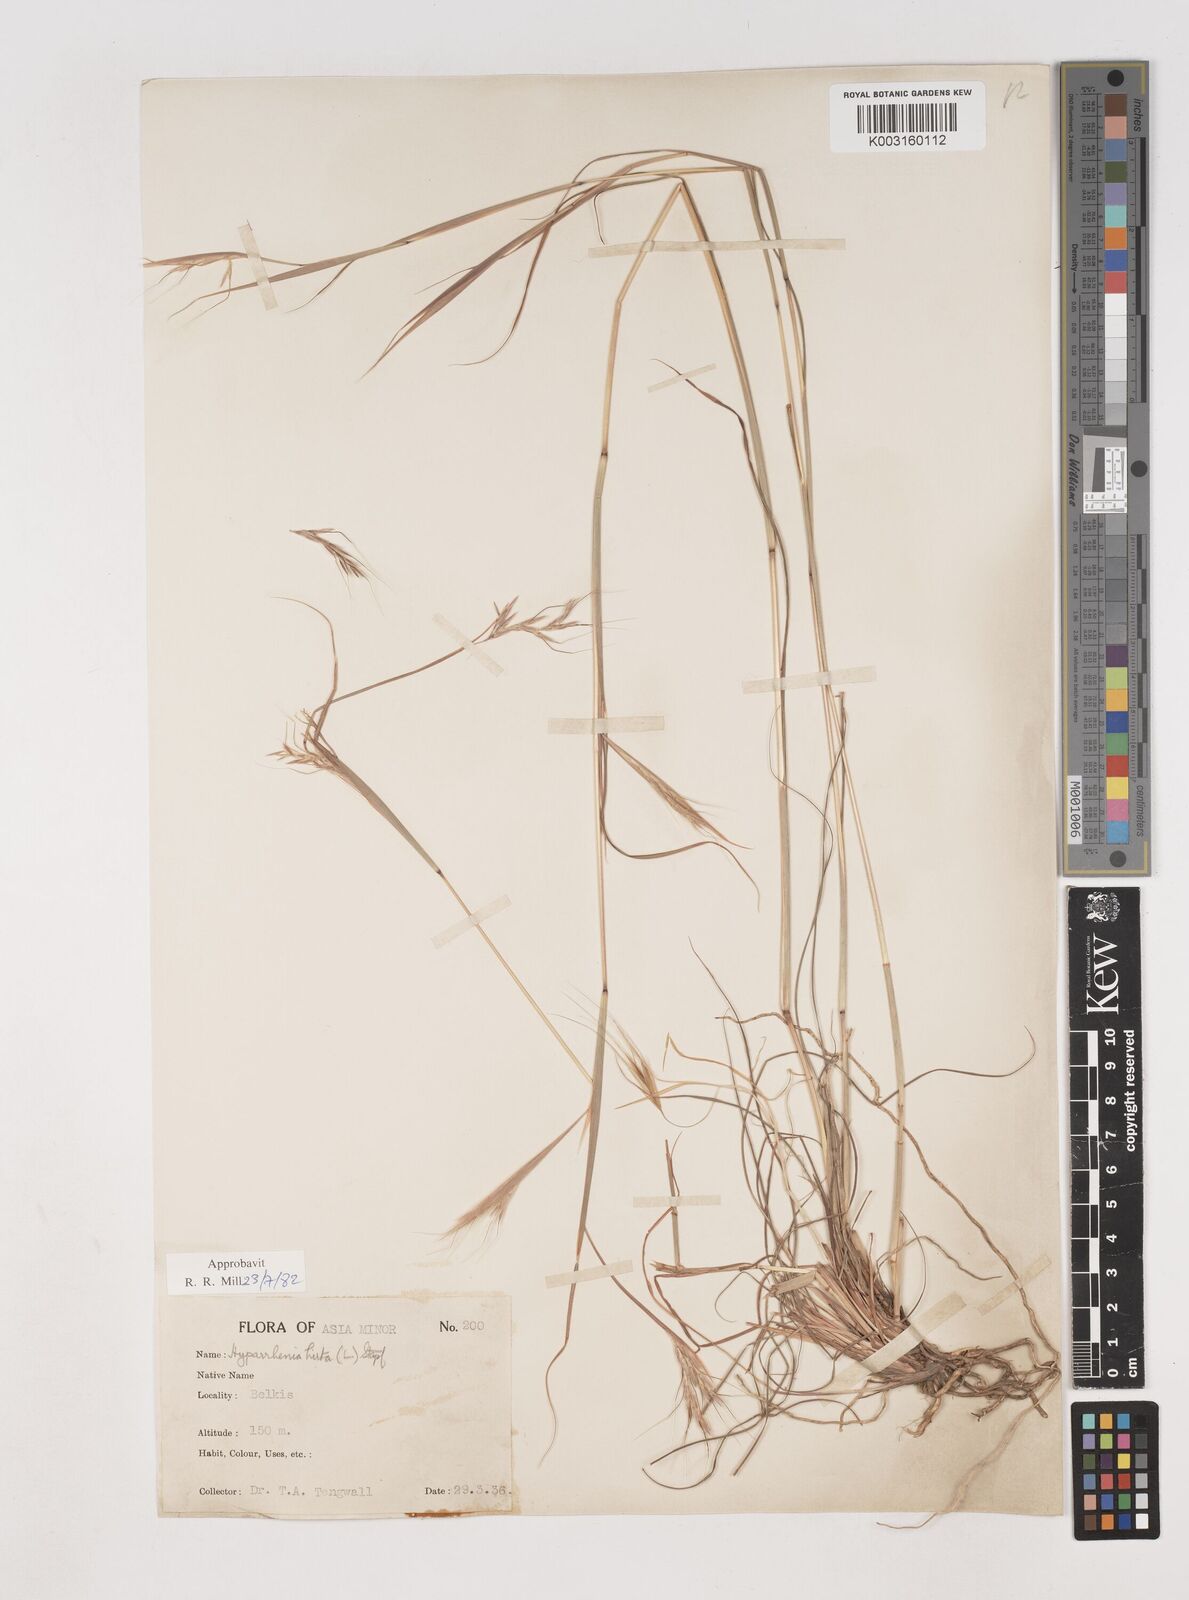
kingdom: Plantae
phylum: Tracheophyta
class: Liliopsida
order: Poales
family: Poaceae
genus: Hyparrhenia
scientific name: Hyparrhenia hirta
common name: Thatching grass
